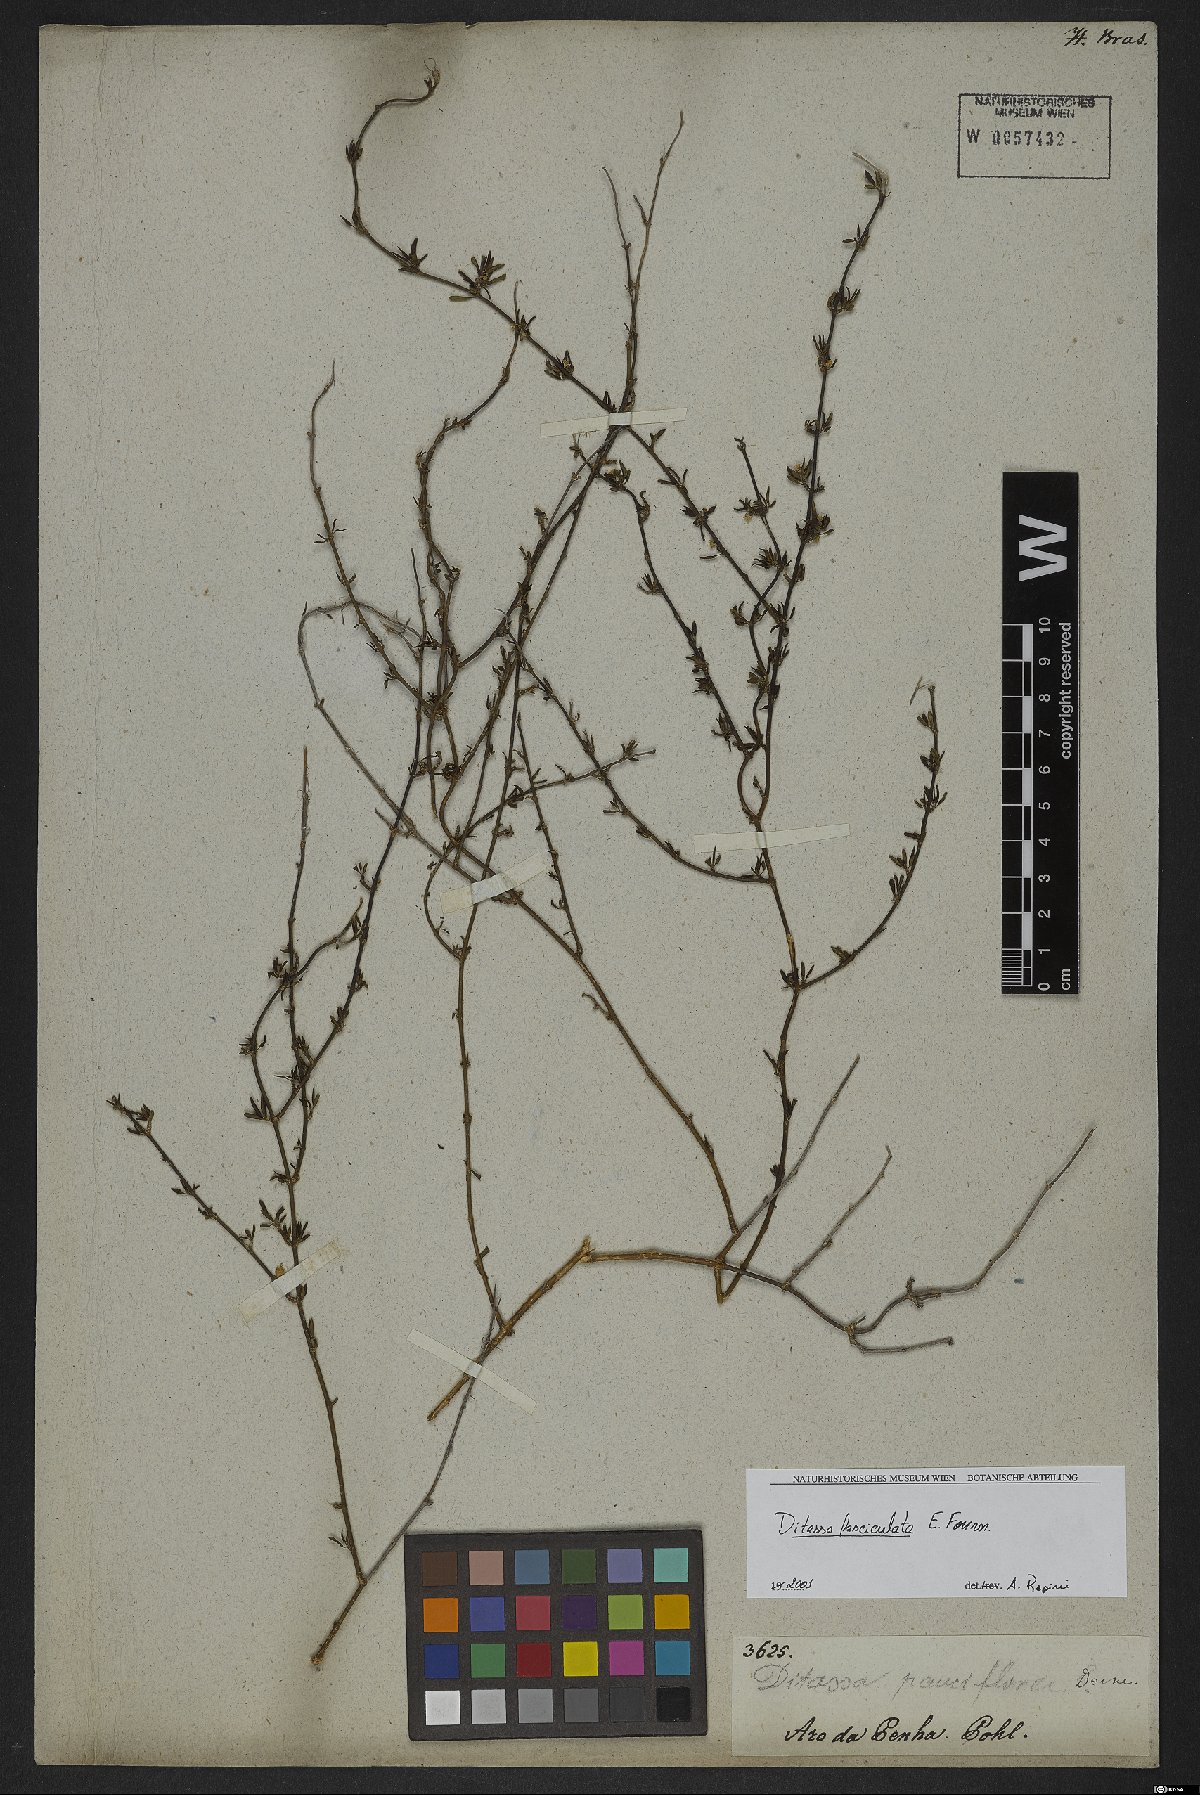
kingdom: Plantae
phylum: Tracheophyta
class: Magnoliopsida
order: Gentianales
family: Apocynaceae
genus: Ditassa
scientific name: Ditassa fasciculata
